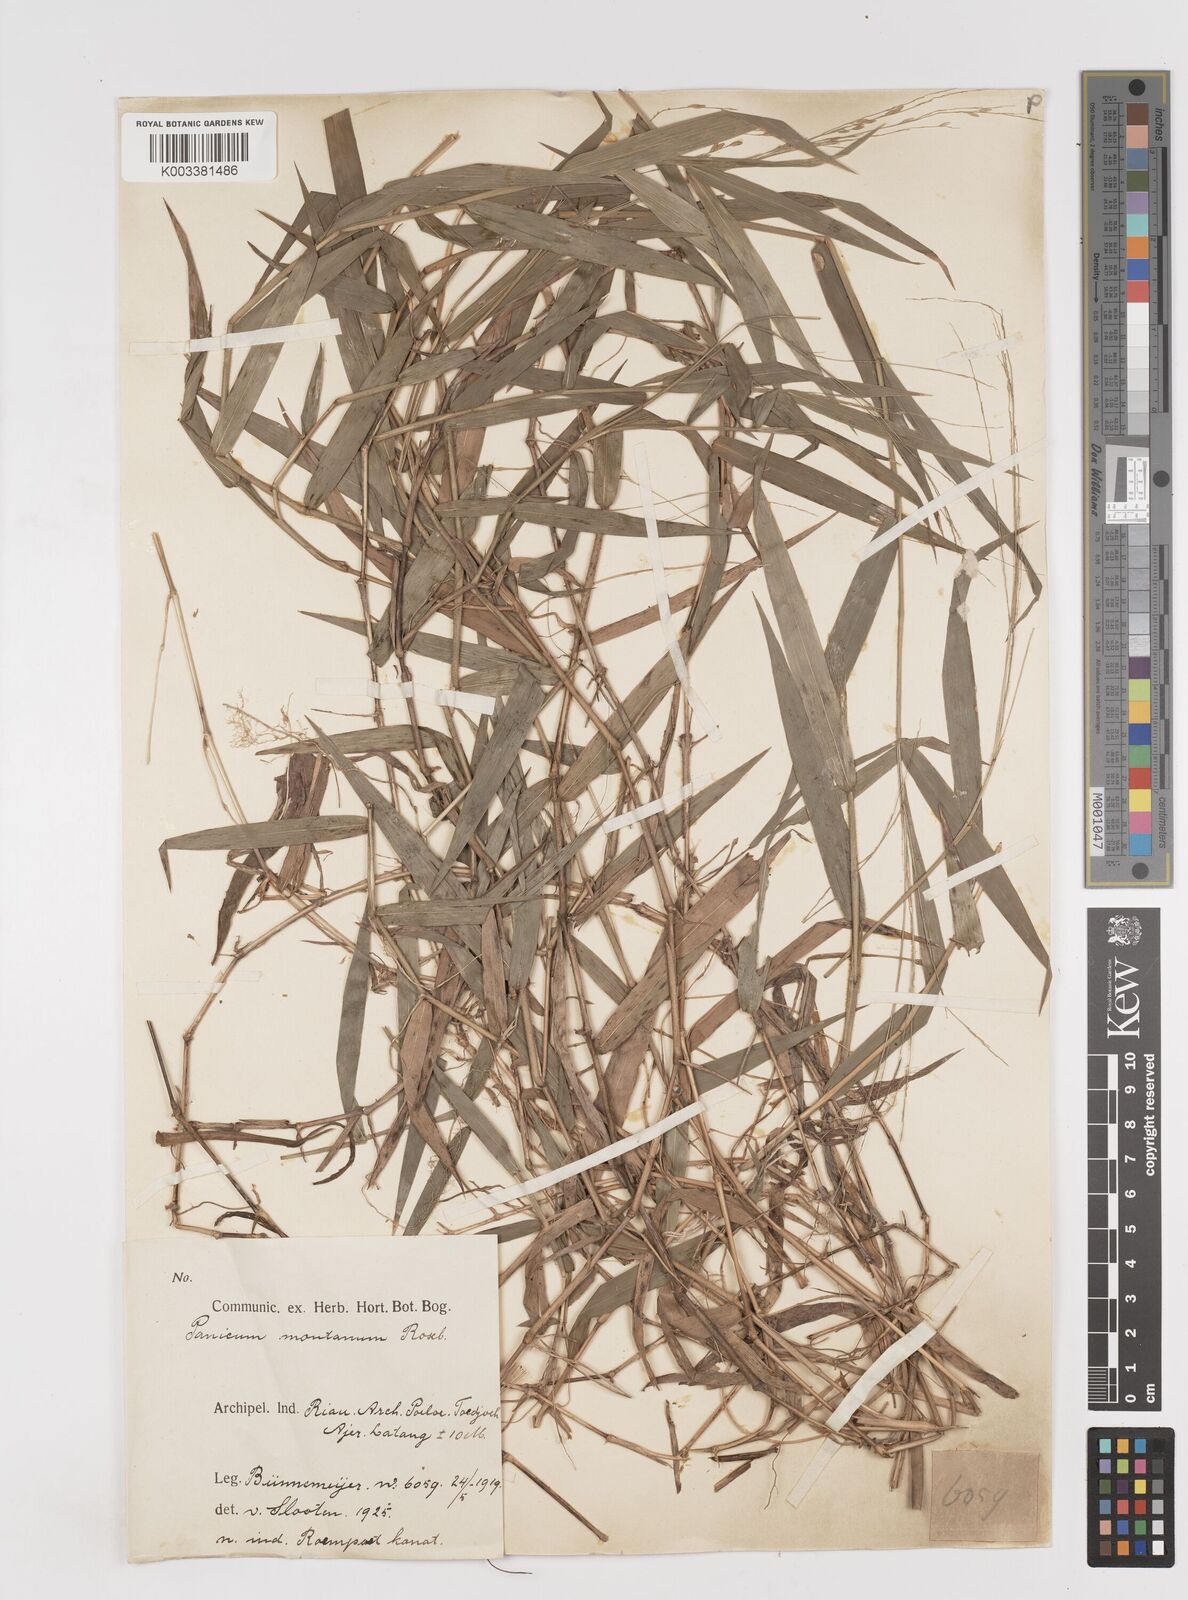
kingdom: Plantae
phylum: Tracheophyta
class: Liliopsida
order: Poales
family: Poaceae
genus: Ottochloa
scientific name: Ottochloa nodosa
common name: Slender-panic grass
